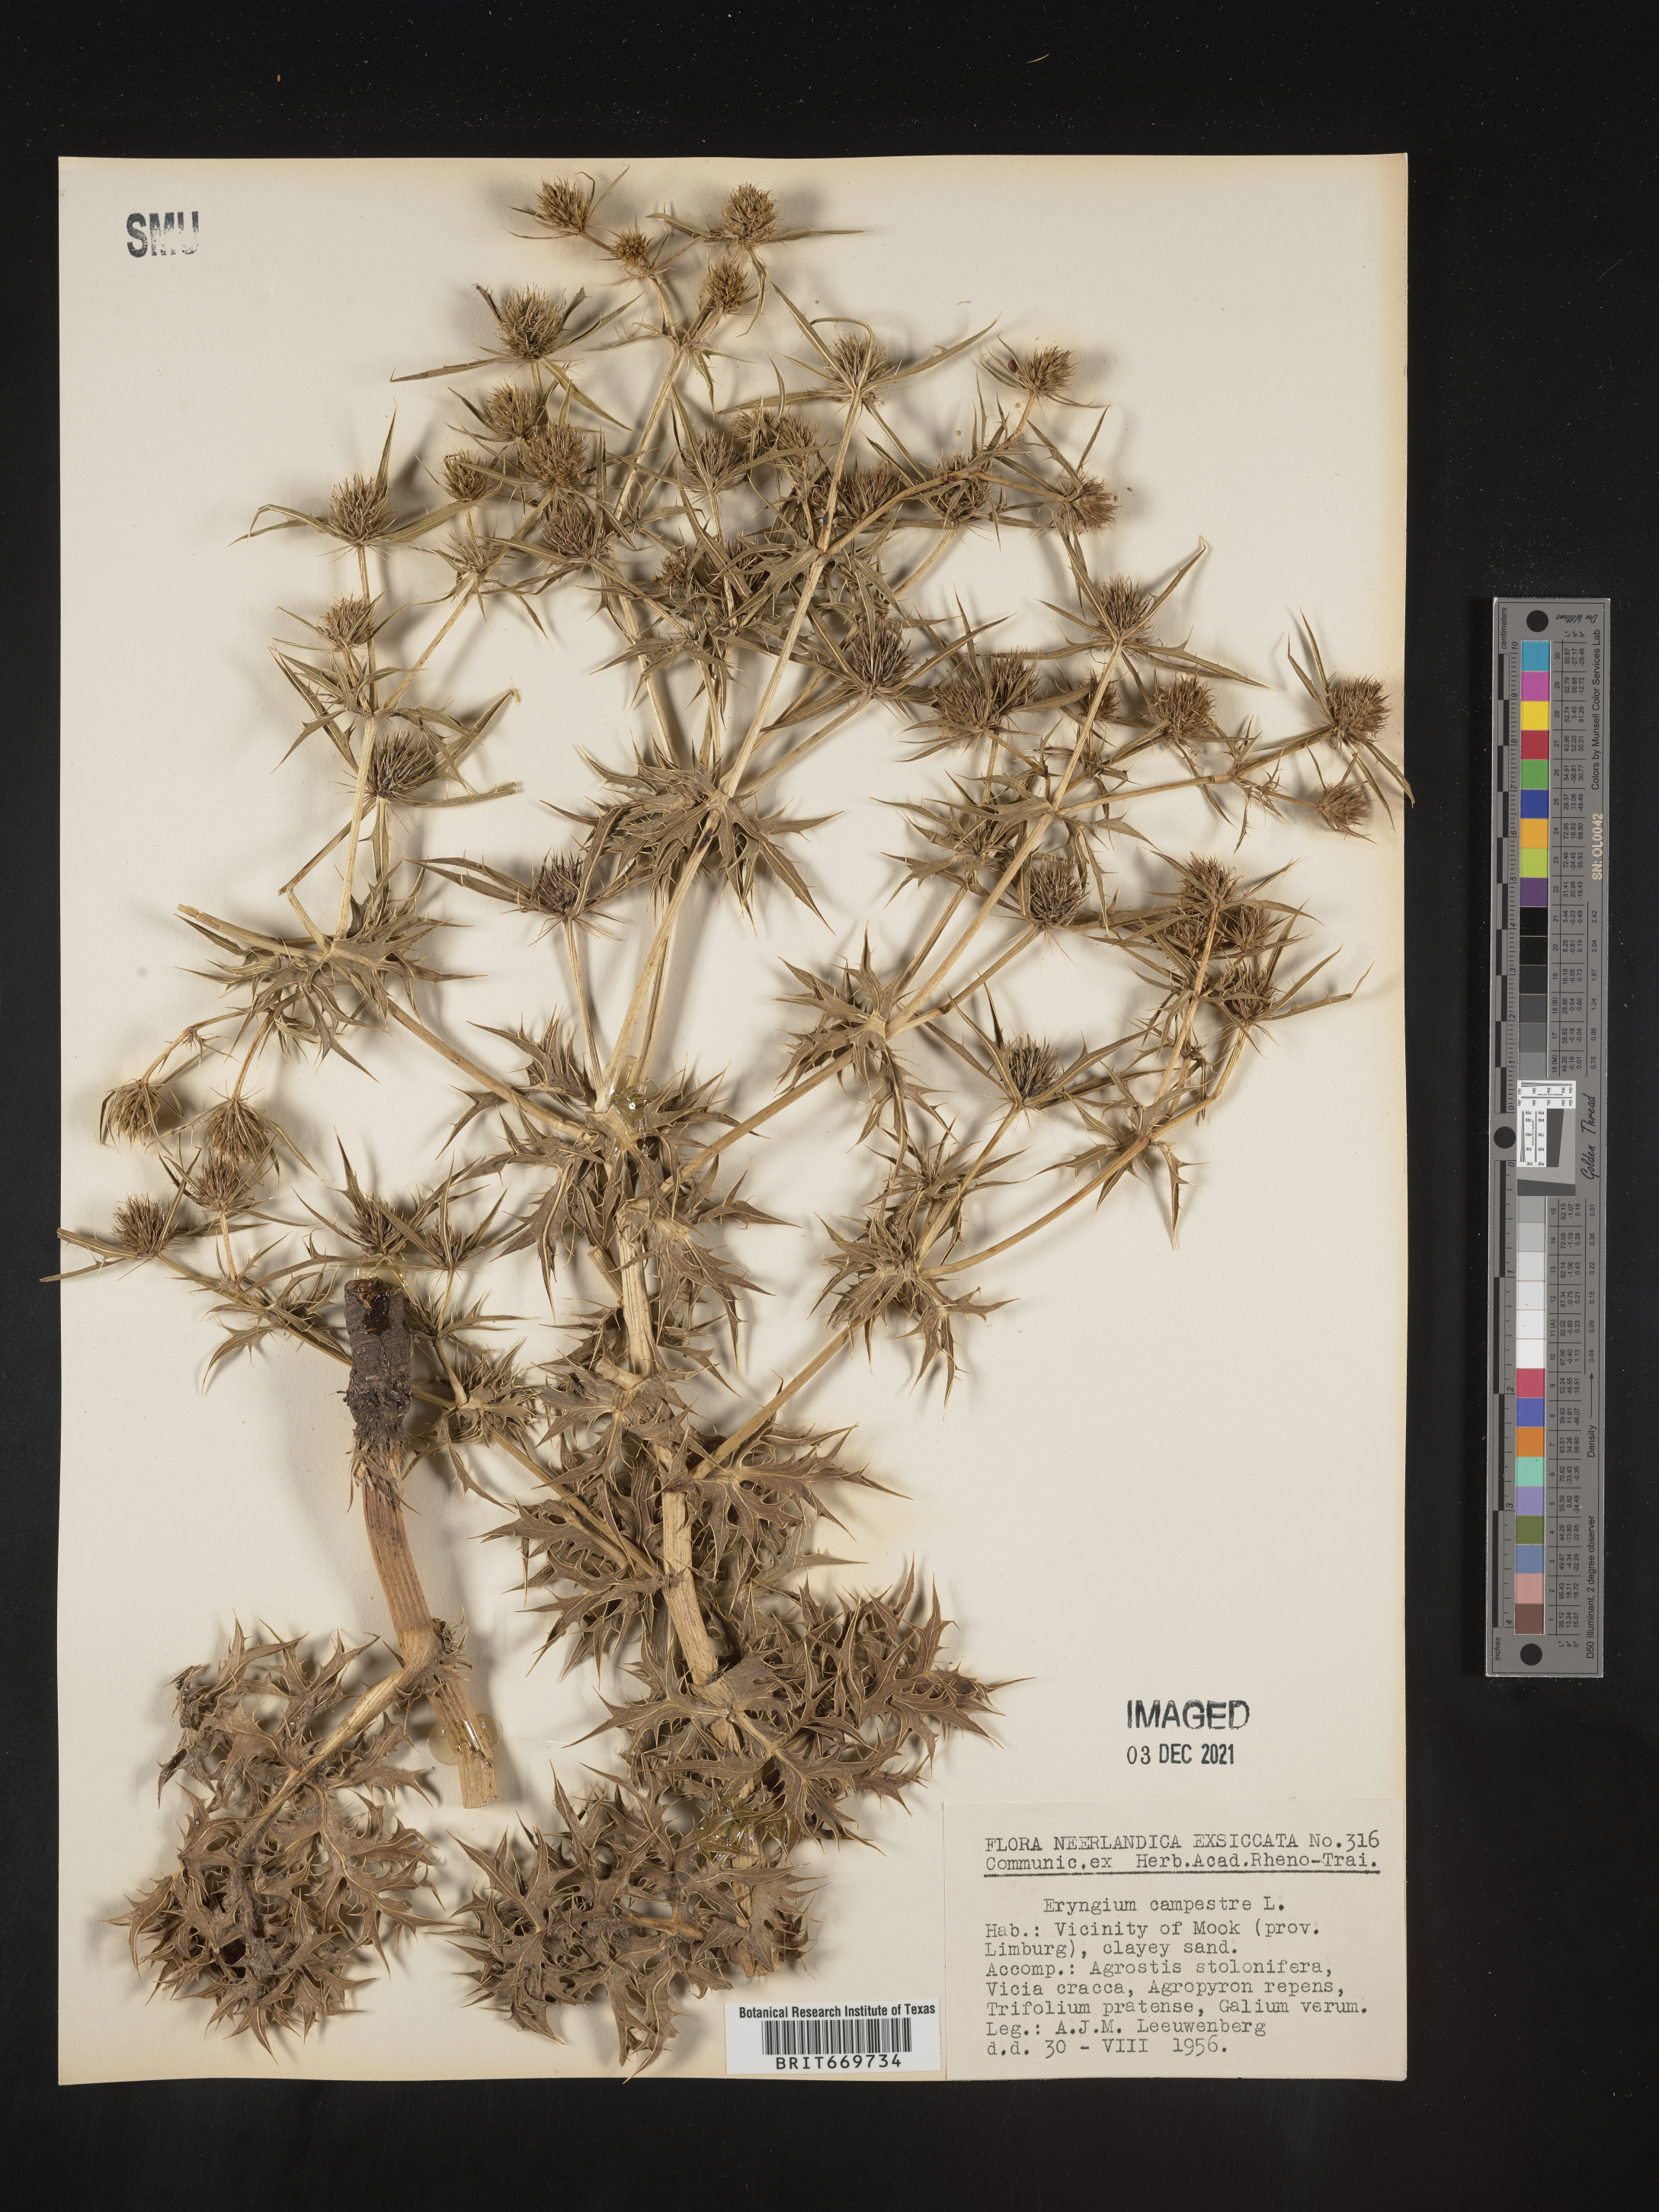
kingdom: Plantae
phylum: Tracheophyta
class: Magnoliopsida
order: Apiales
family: Apiaceae
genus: Eryngium
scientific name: Eryngium
